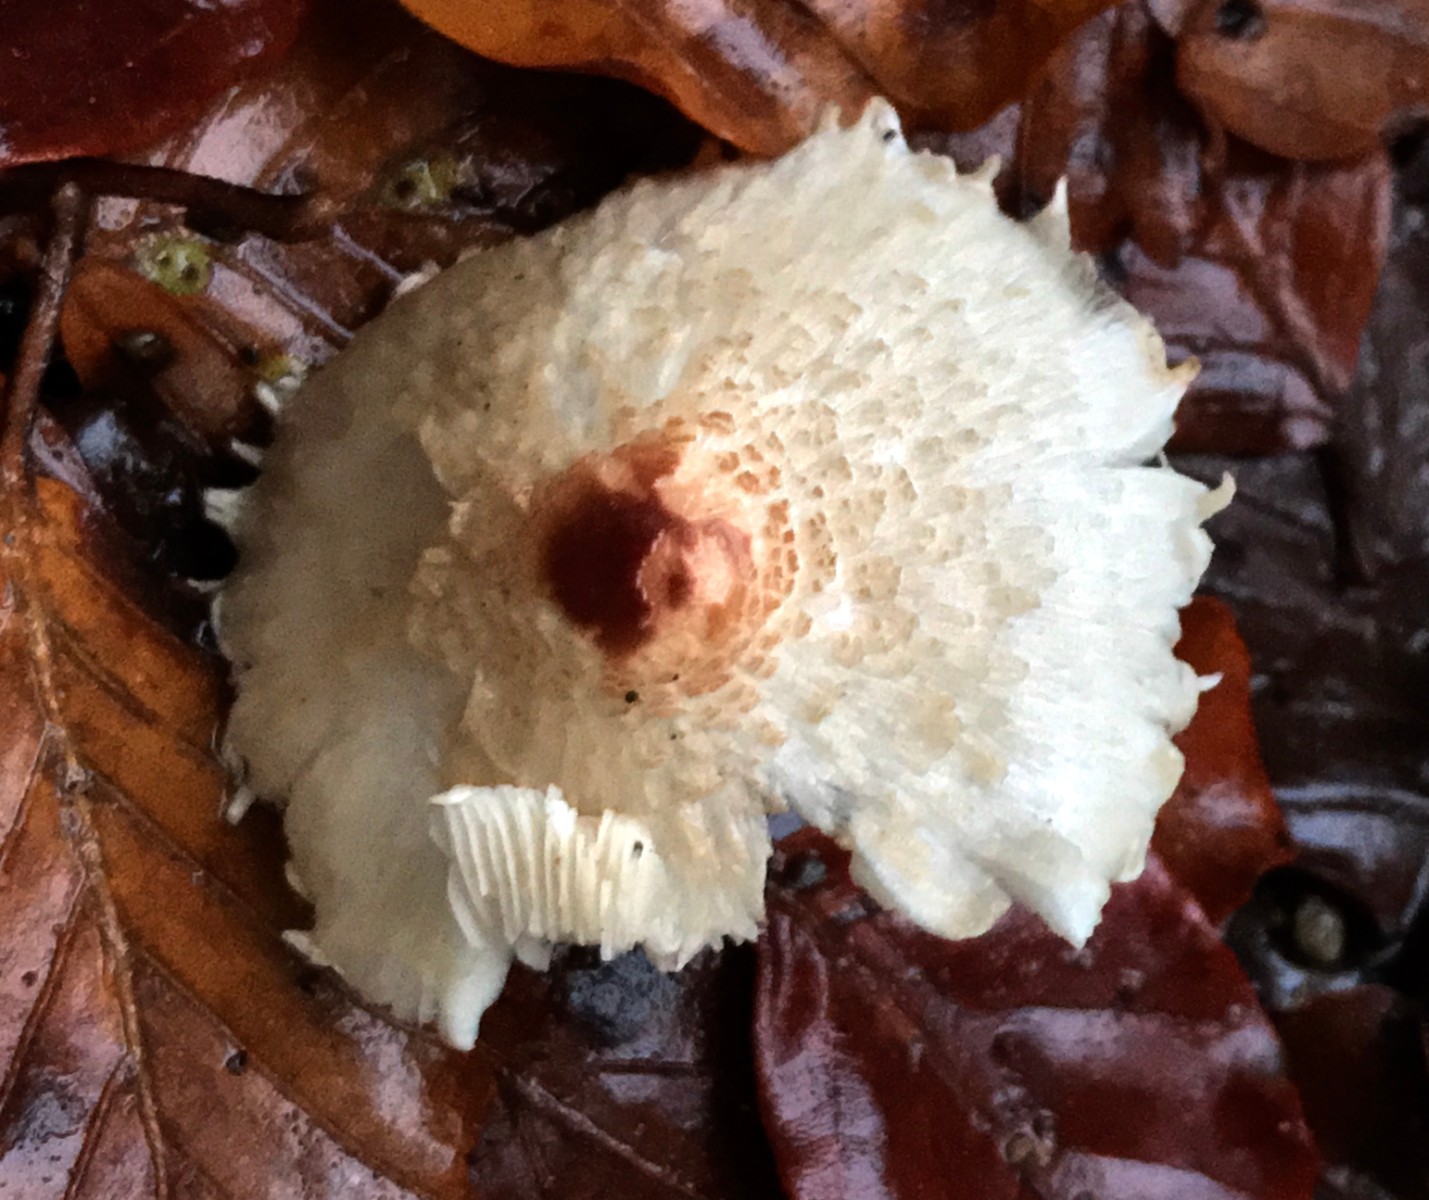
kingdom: Fungi
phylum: Basidiomycota
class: Agaricomycetes
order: Agaricales
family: Agaricaceae
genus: Lepiota
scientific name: Lepiota cristata
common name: stinkende parasolhat
